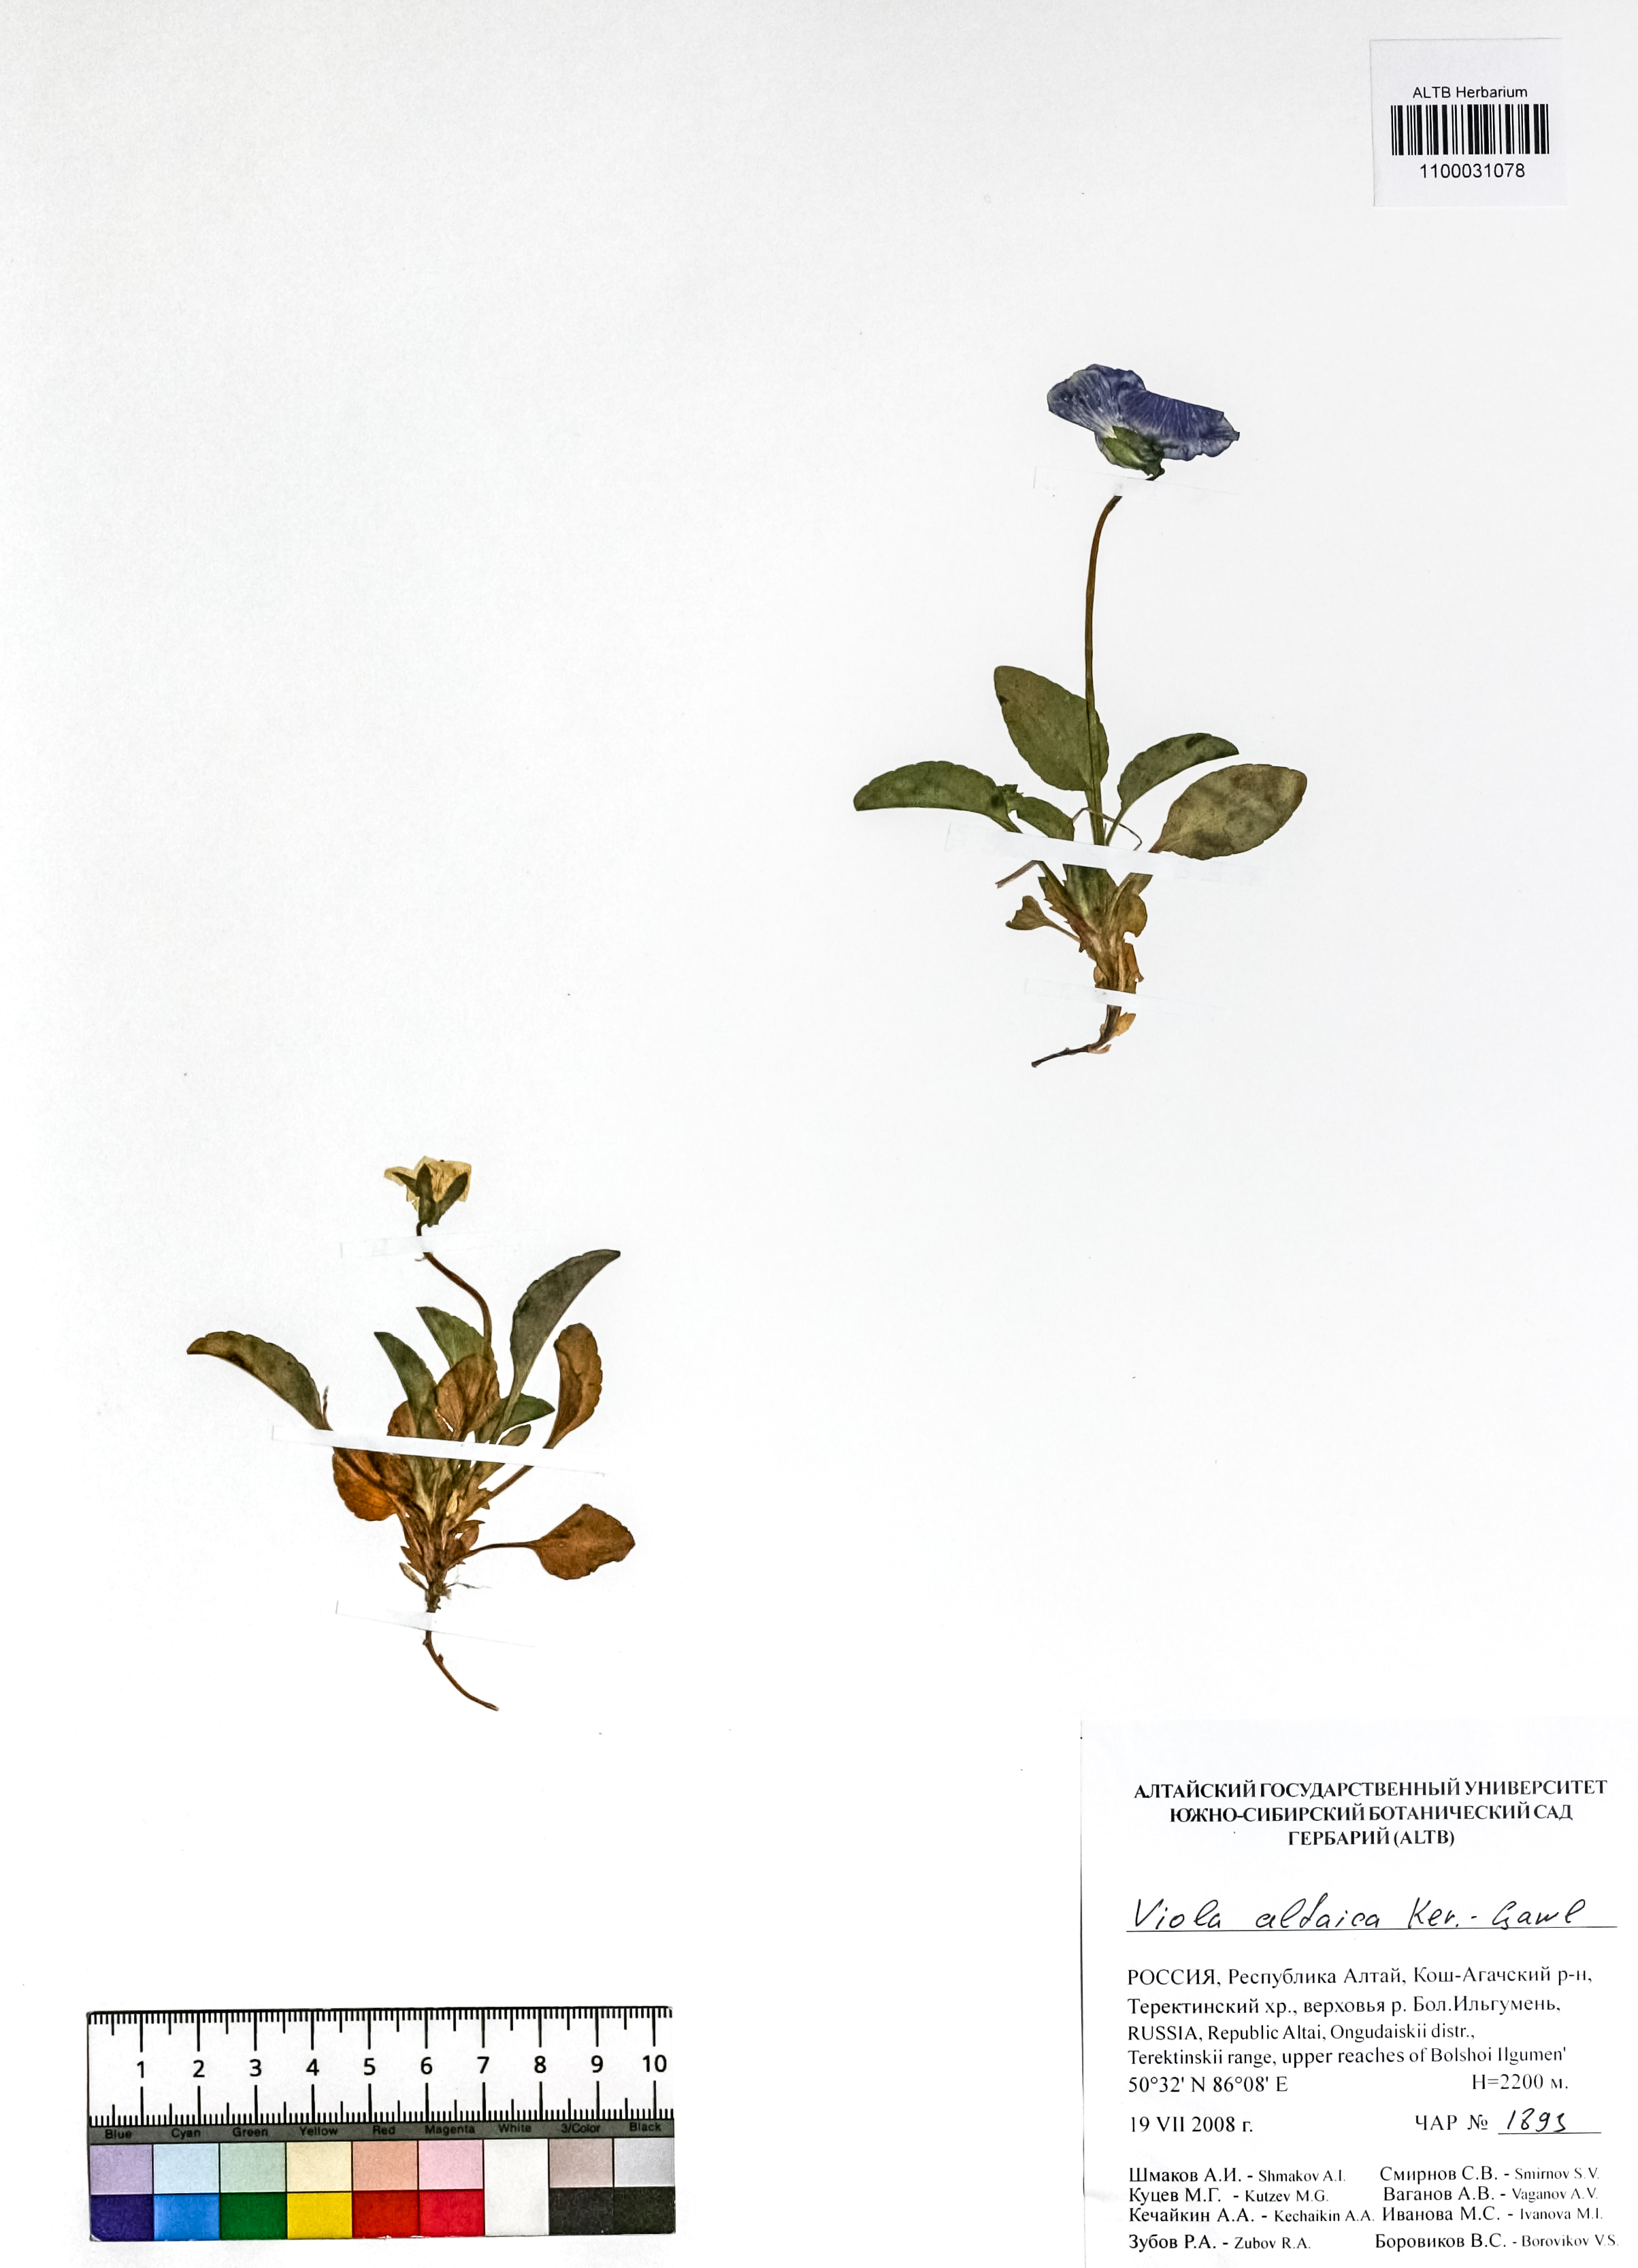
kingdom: Plantae
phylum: Tracheophyta
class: Magnoliopsida
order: Malpighiales
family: Violaceae
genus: Viola
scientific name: Viola altaica
